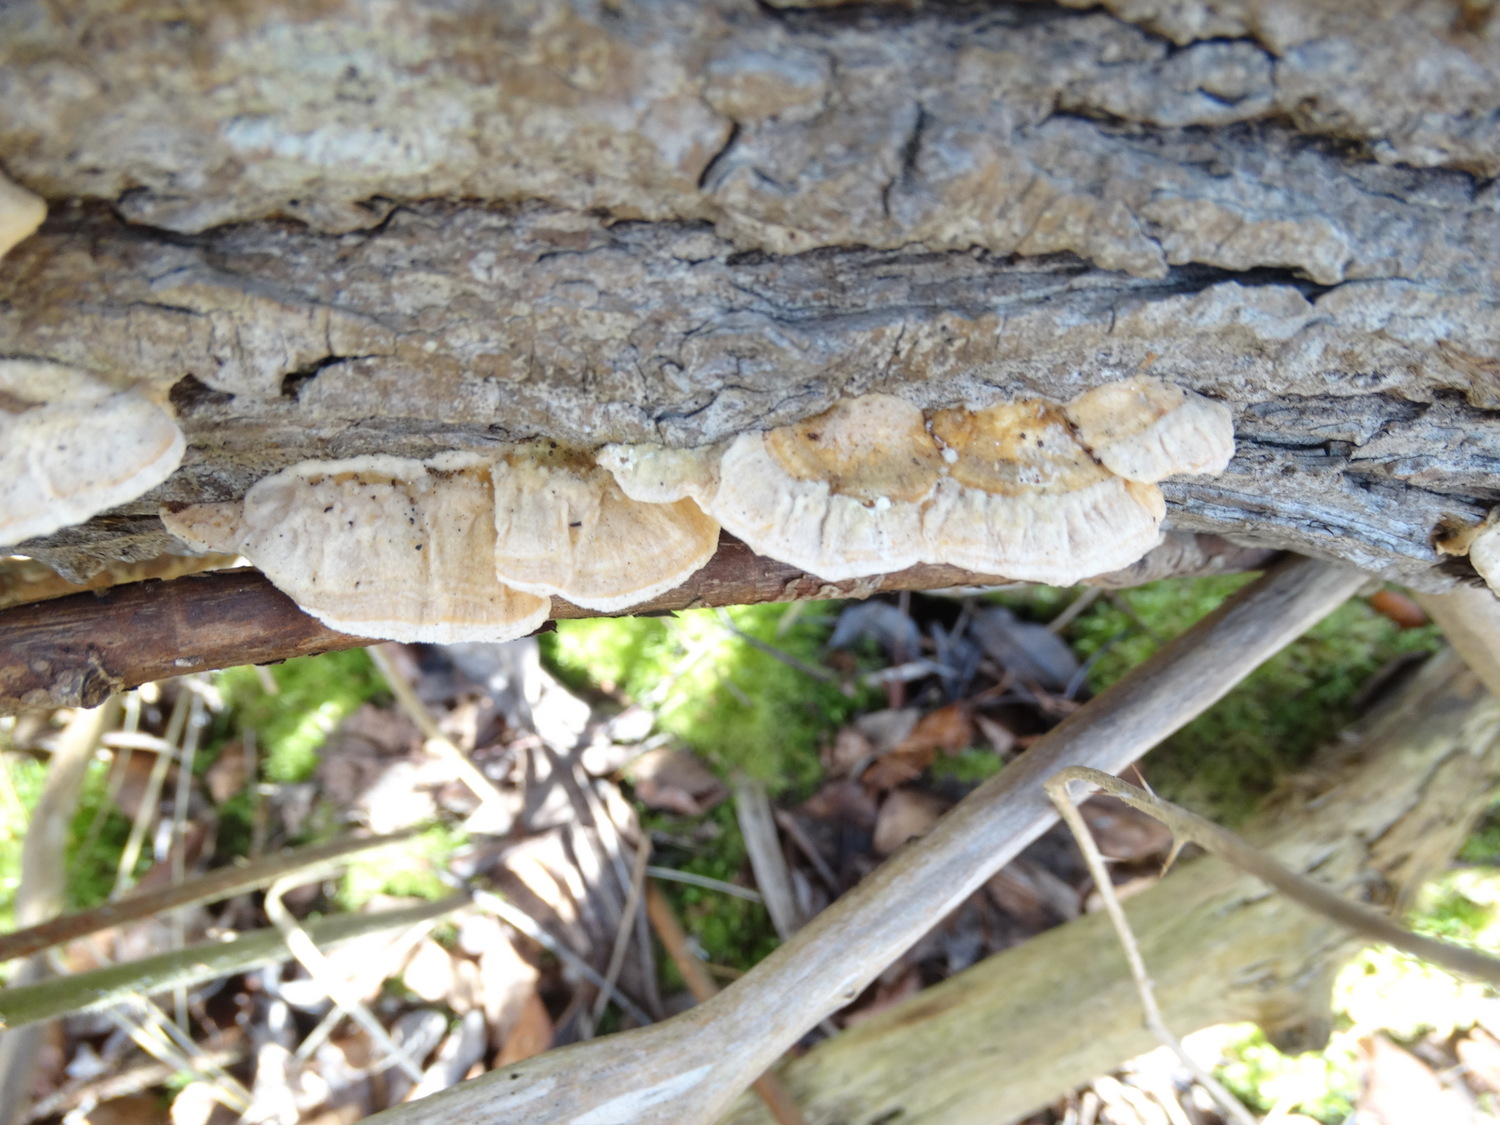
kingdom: Fungi
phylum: Basidiomycota
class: Agaricomycetes
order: Polyporales
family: Polyporaceae
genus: Trametes
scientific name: Trametes
